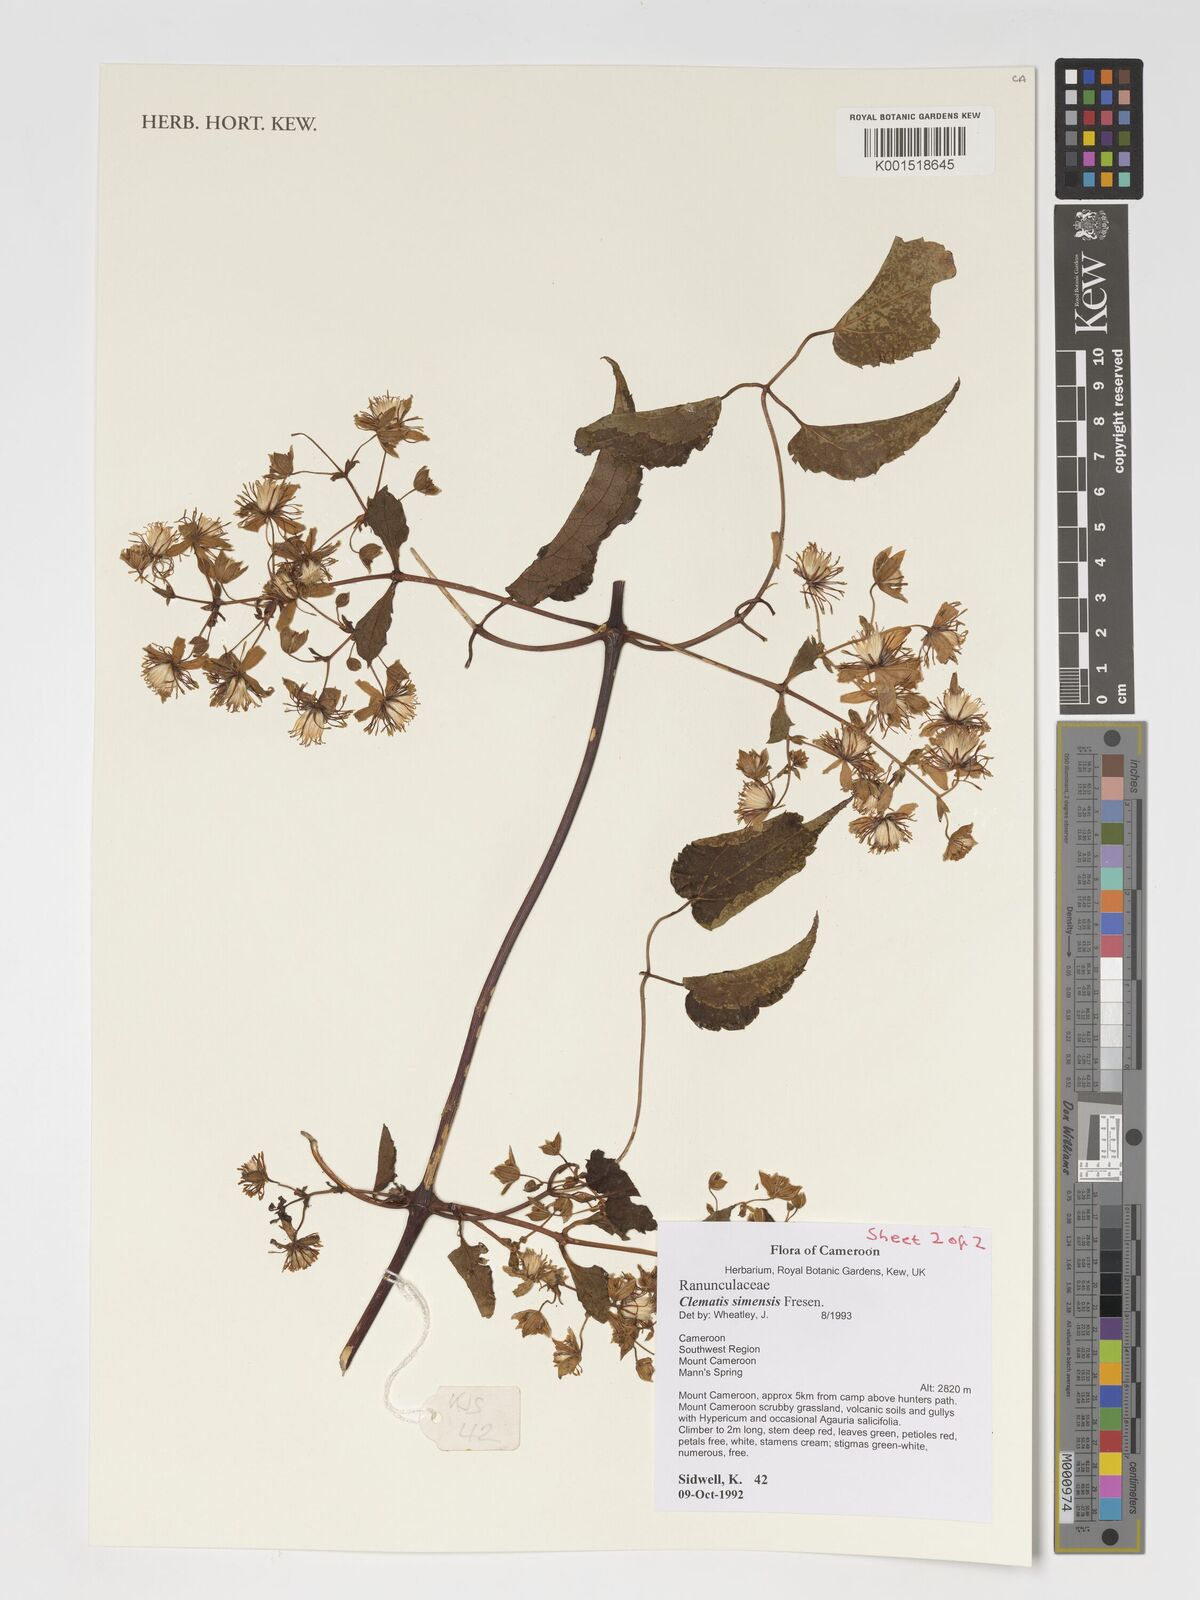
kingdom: Plantae
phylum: Tracheophyta
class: Magnoliopsida
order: Ranunculales
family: Ranunculaceae
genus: Clematis
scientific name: Clematis simensis
